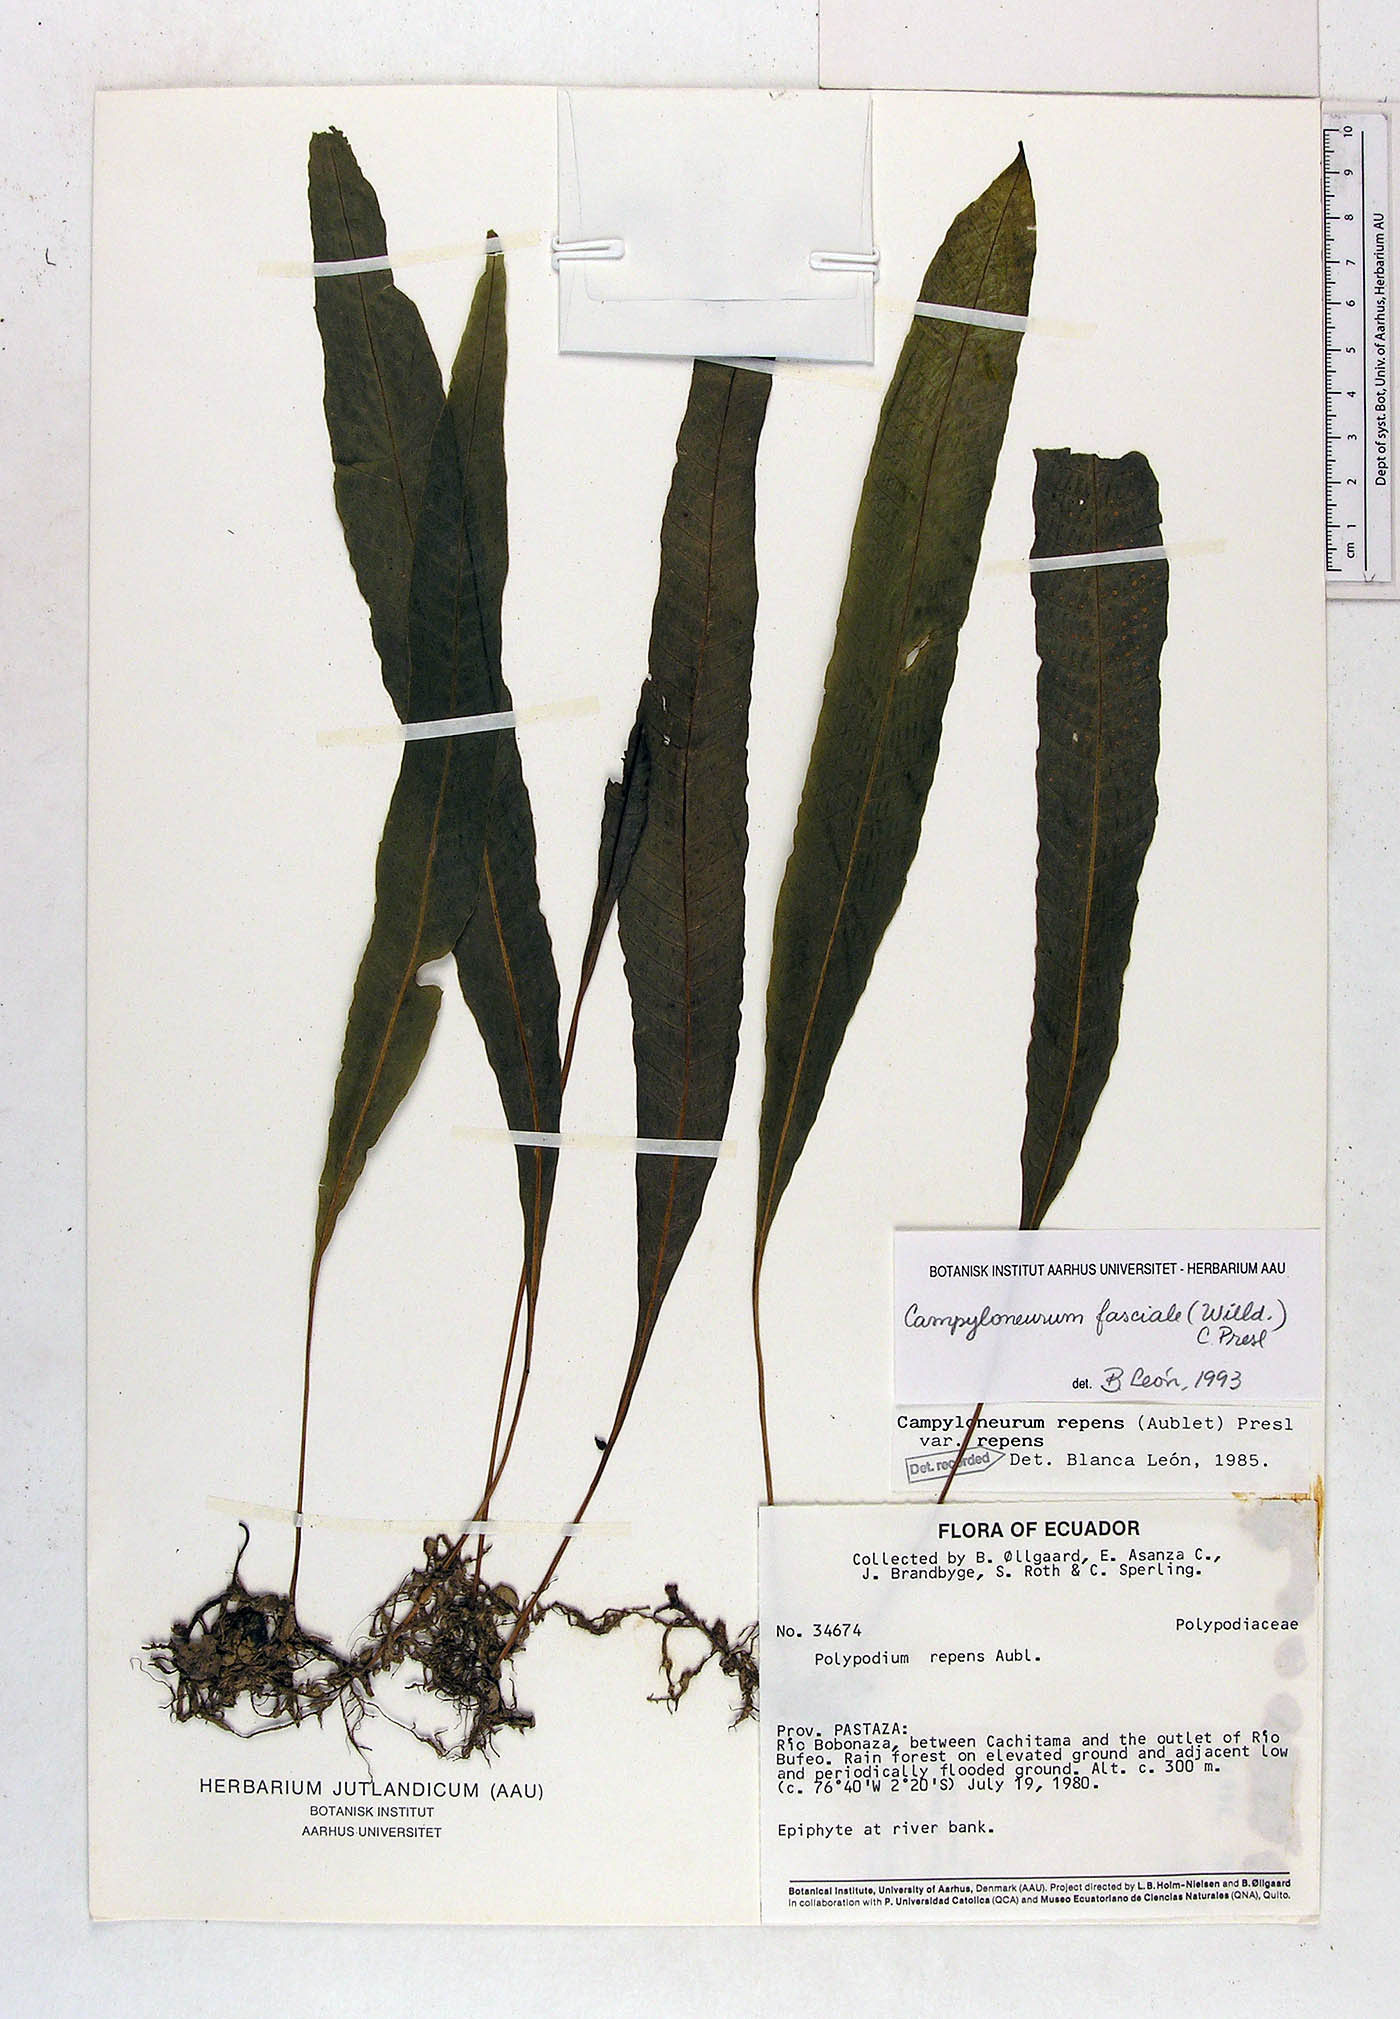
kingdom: Plantae
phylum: Tracheophyta
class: Polypodiopsida
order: Polypodiales
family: Polypodiaceae
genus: Campyloneurum
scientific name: Campyloneurum repens
